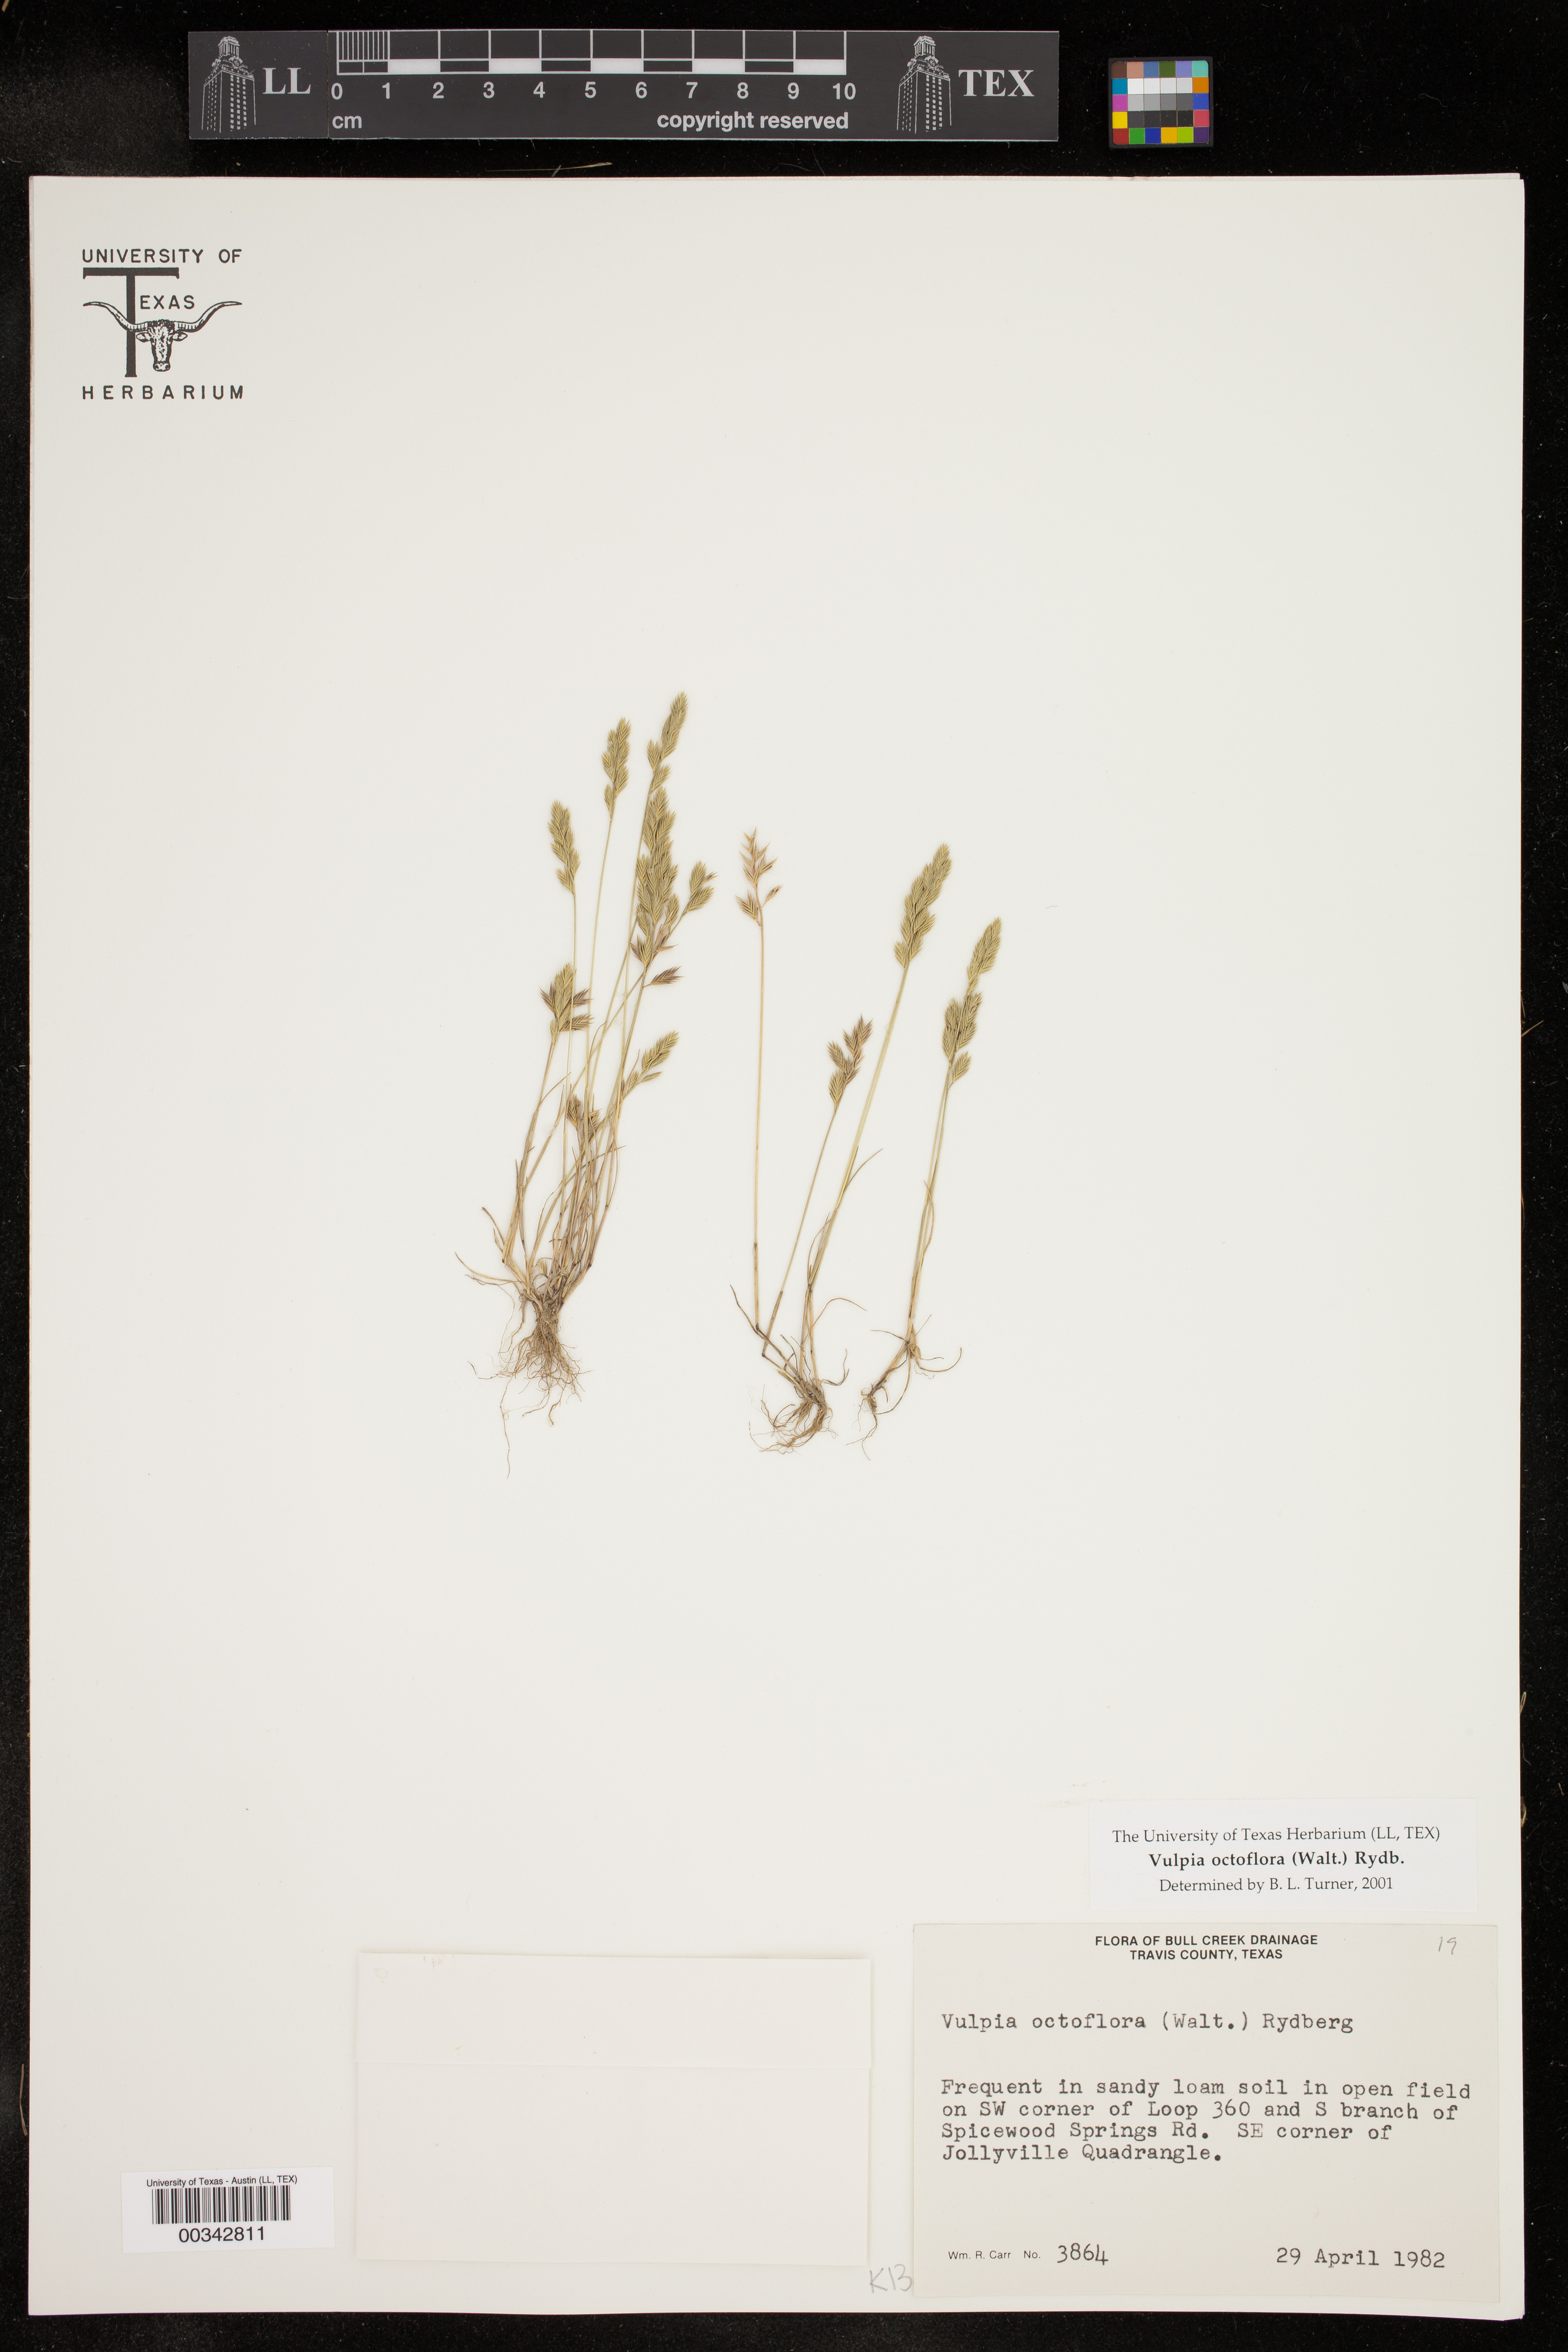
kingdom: Plantae
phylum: Tracheophyta
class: Liliopsida
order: Poales
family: Poaceae
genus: Festuca
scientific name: Festuca octoflora
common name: Sixweeks grass
